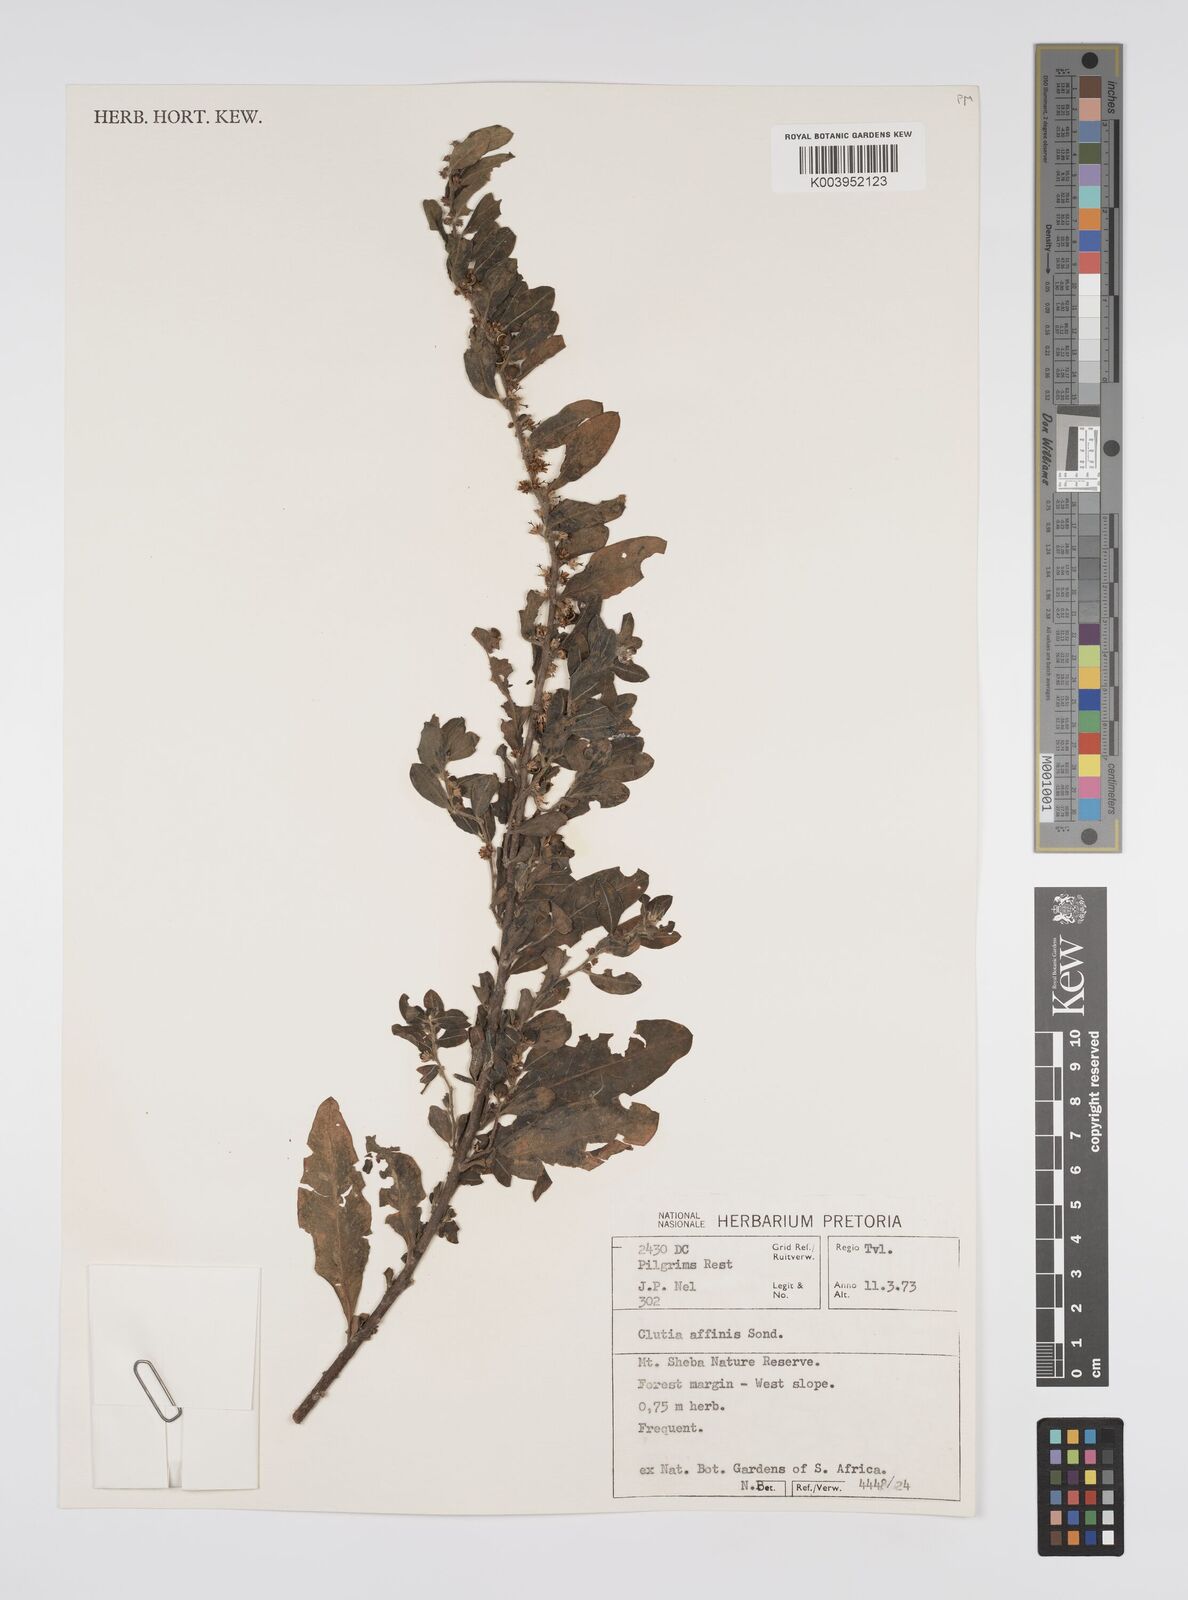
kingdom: Plantae
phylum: Tracheophyta
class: Magnoliopsida
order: Malpighiales
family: Peraceae
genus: Clutia
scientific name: Clutia affinis
